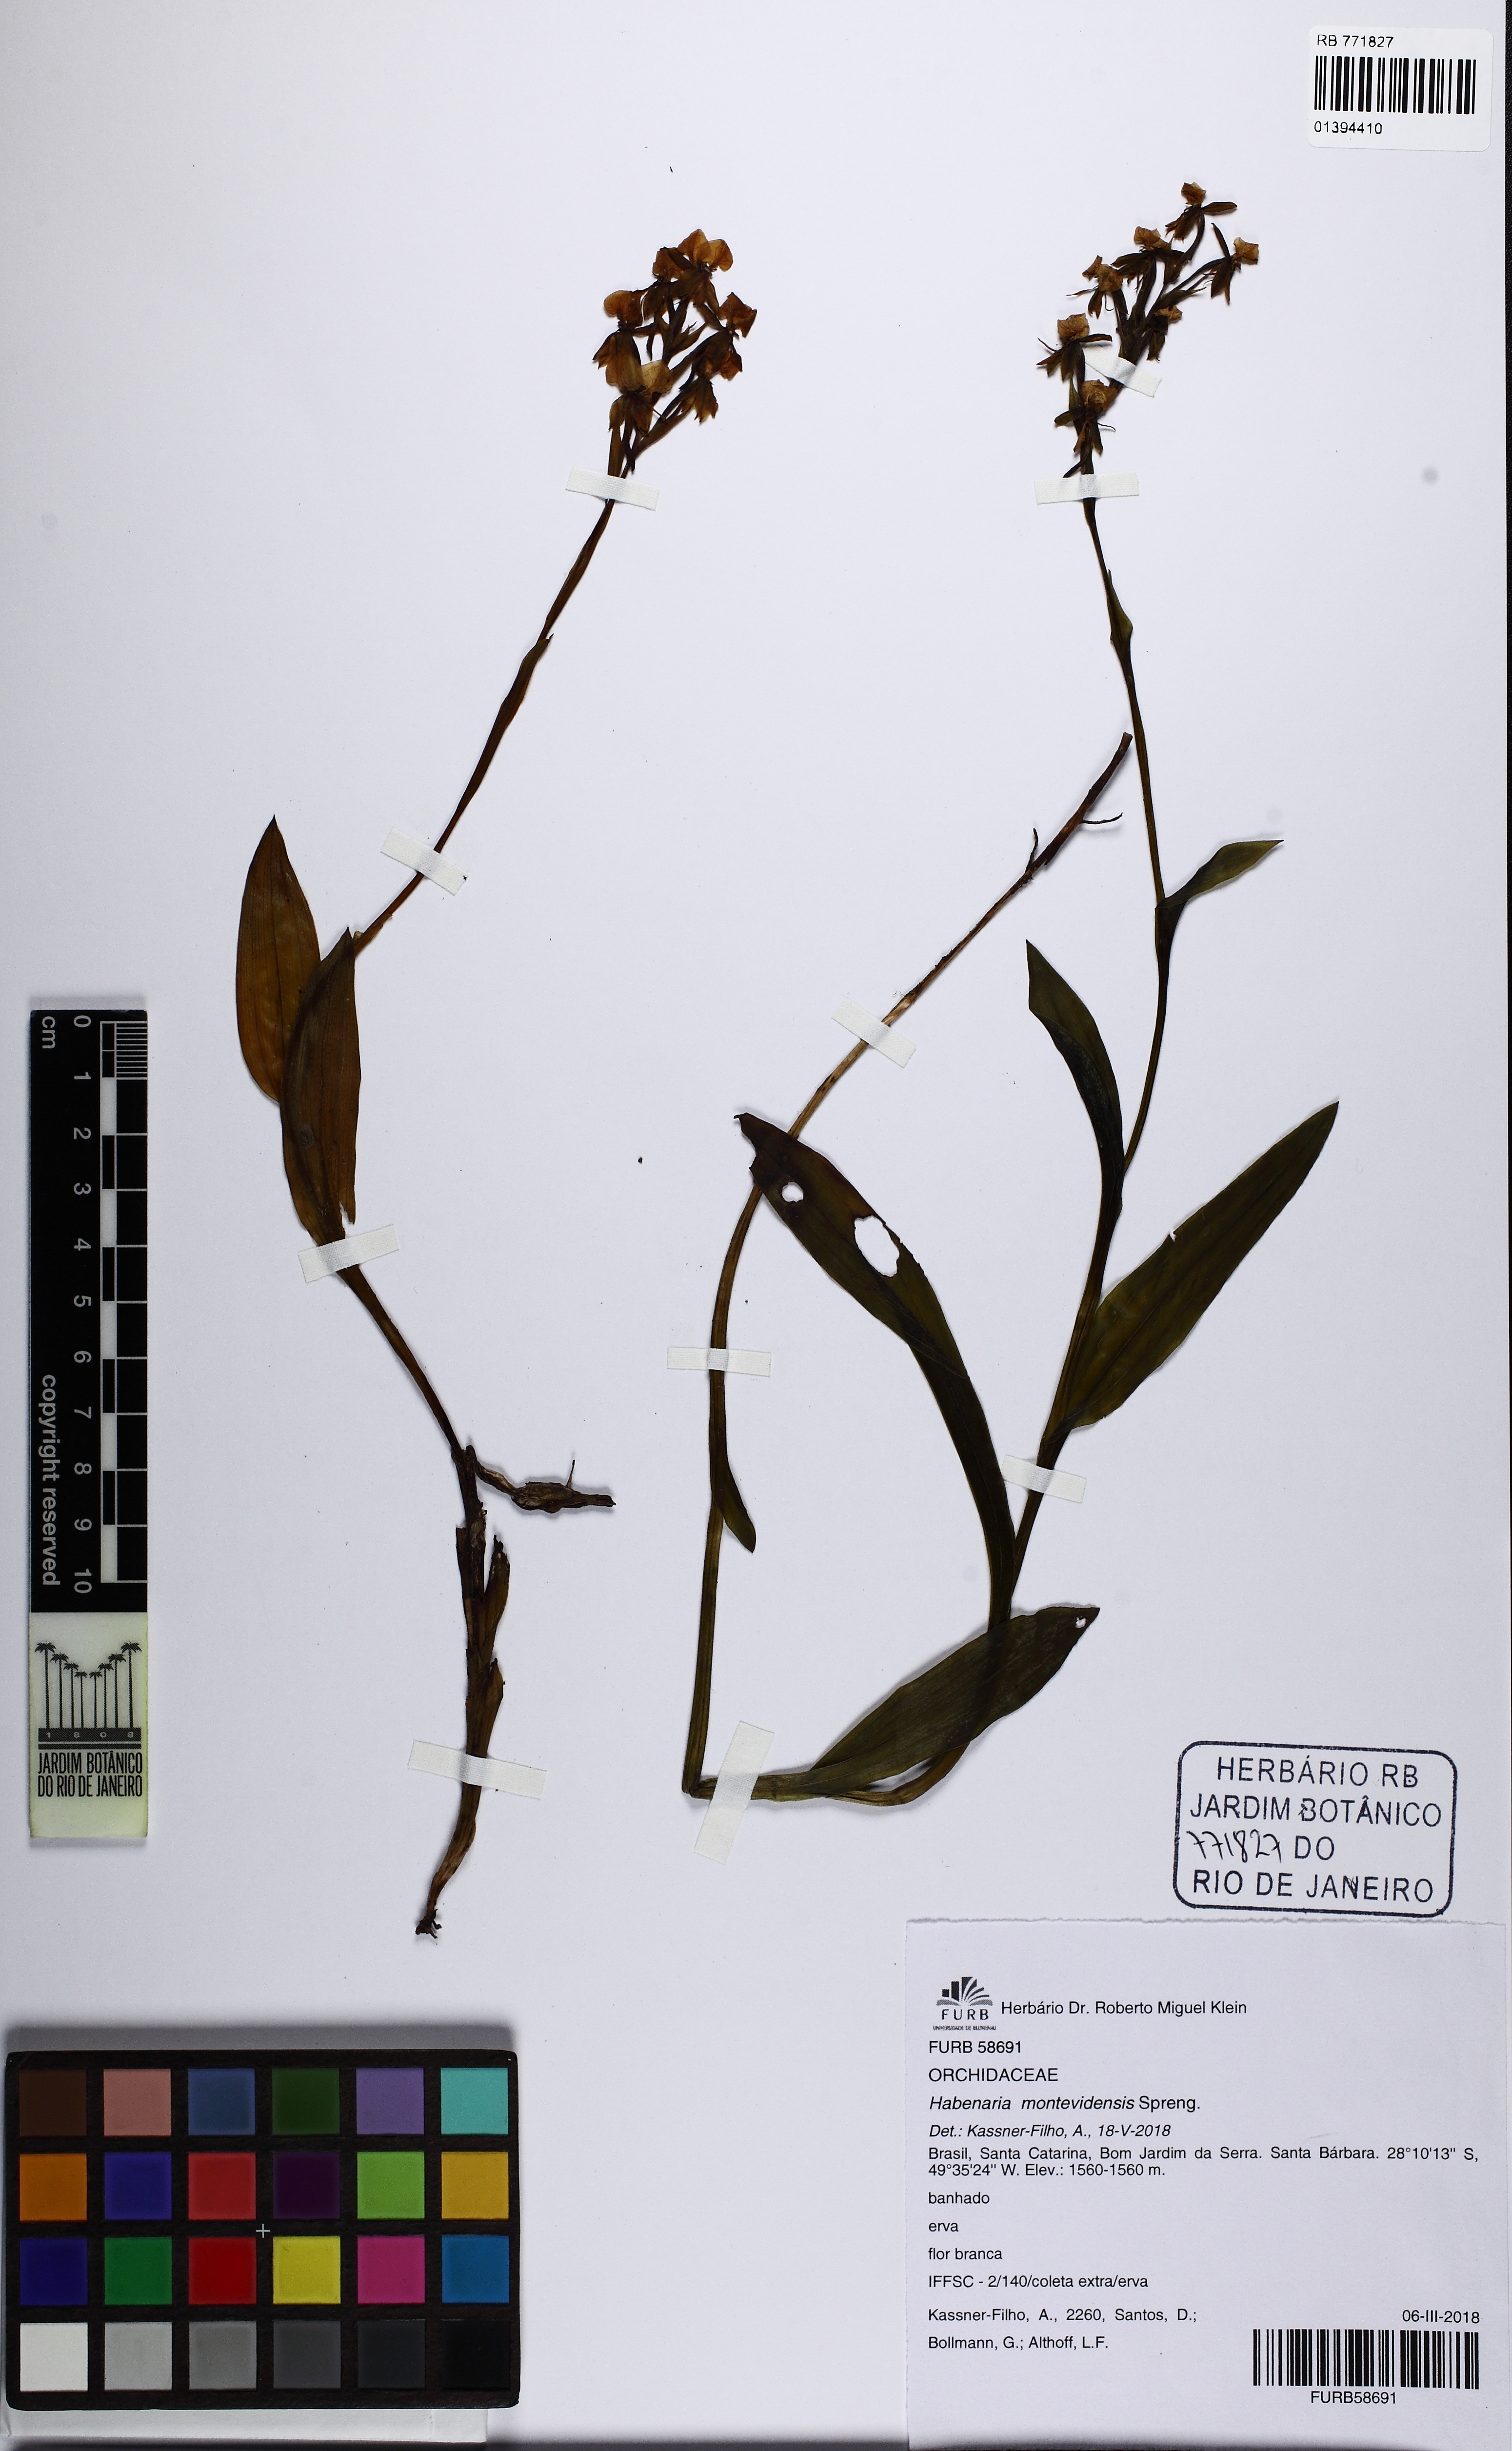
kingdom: Plantae
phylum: Tracheophyta
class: Liliopsida
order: Asparagales
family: Orchidaceae
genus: Habenaria
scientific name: Habenaria montevidensis
